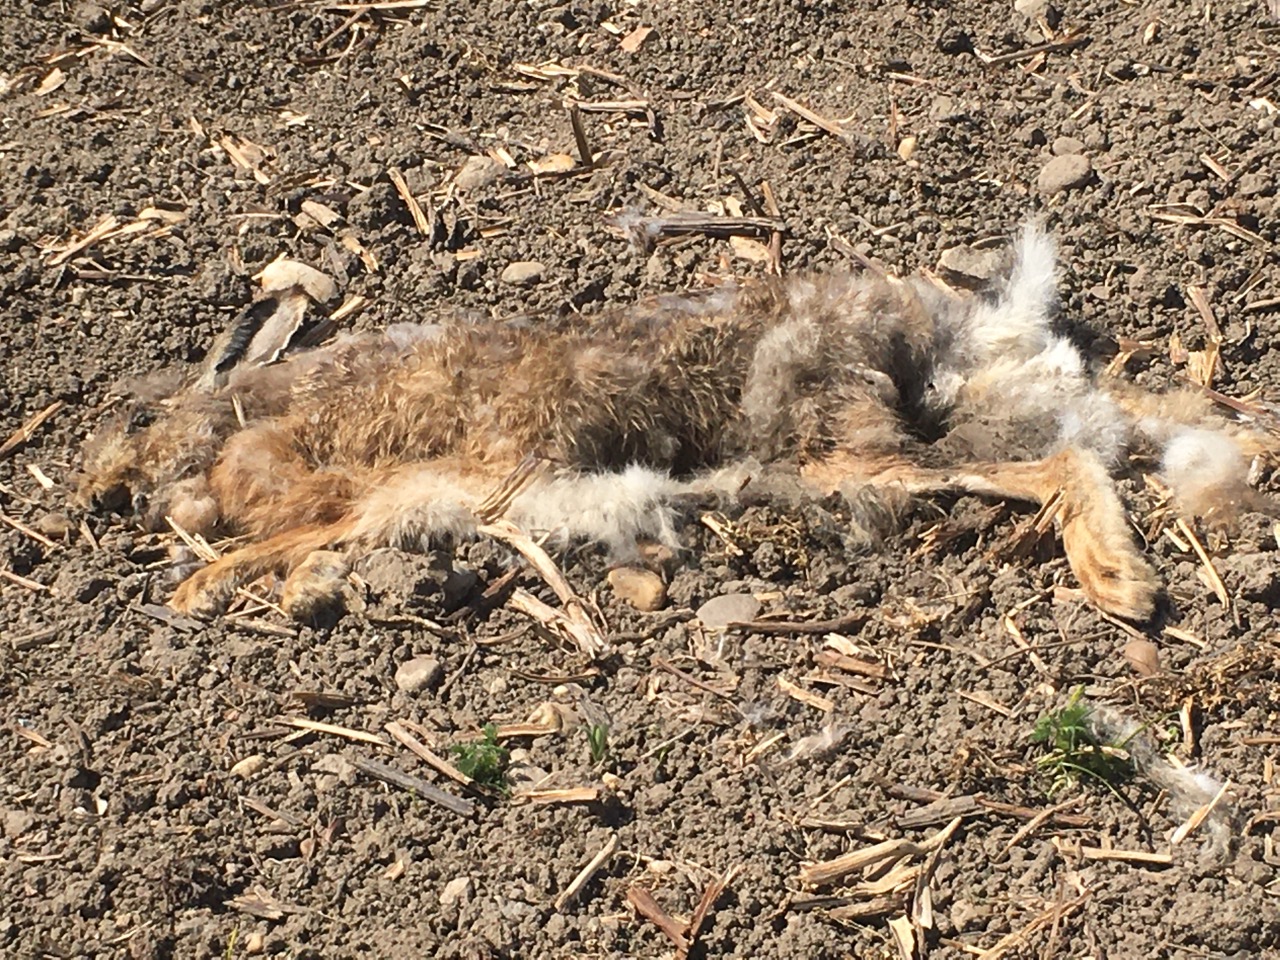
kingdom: Animalia
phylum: Chordata
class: Mammalia
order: Lagomorpha
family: Leporidae
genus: Lepus
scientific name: Lepus europaeus
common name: European hare
